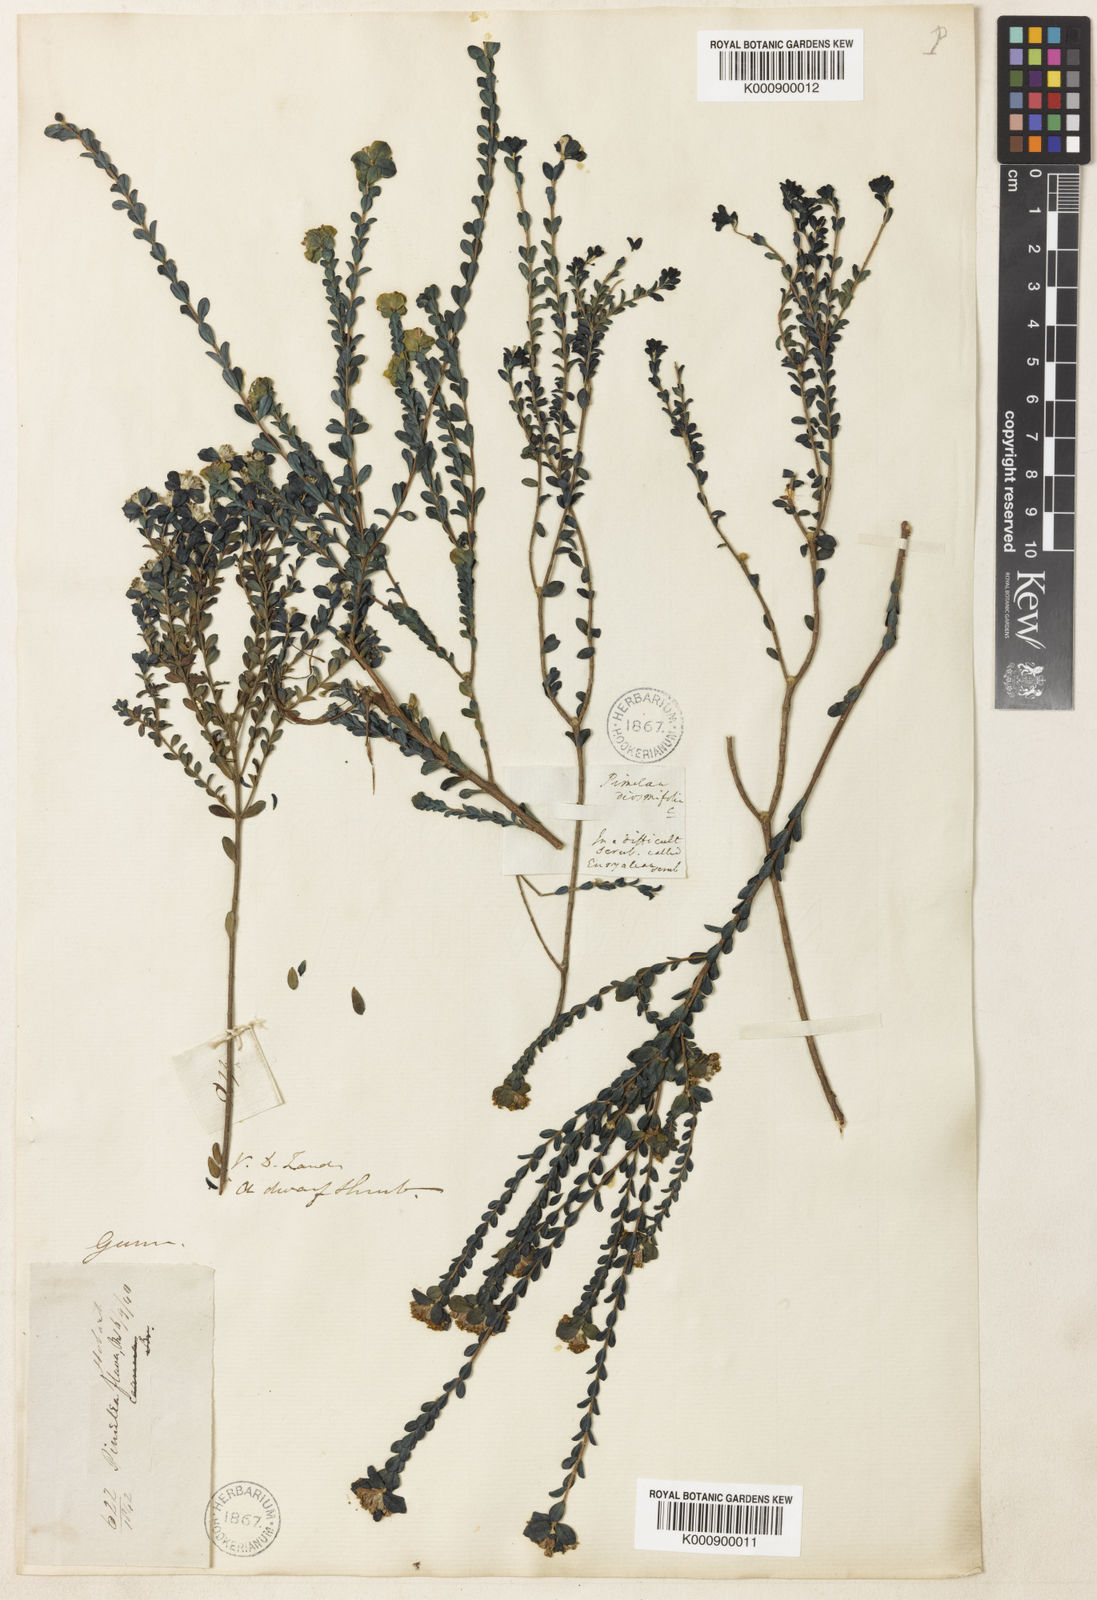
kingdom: Plantae
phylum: Tracheophyta
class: Magnoliopsida
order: Malvales
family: Thymelaeaceae
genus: Pimelea
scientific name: Pimelea flava
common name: Yellow riceflower
